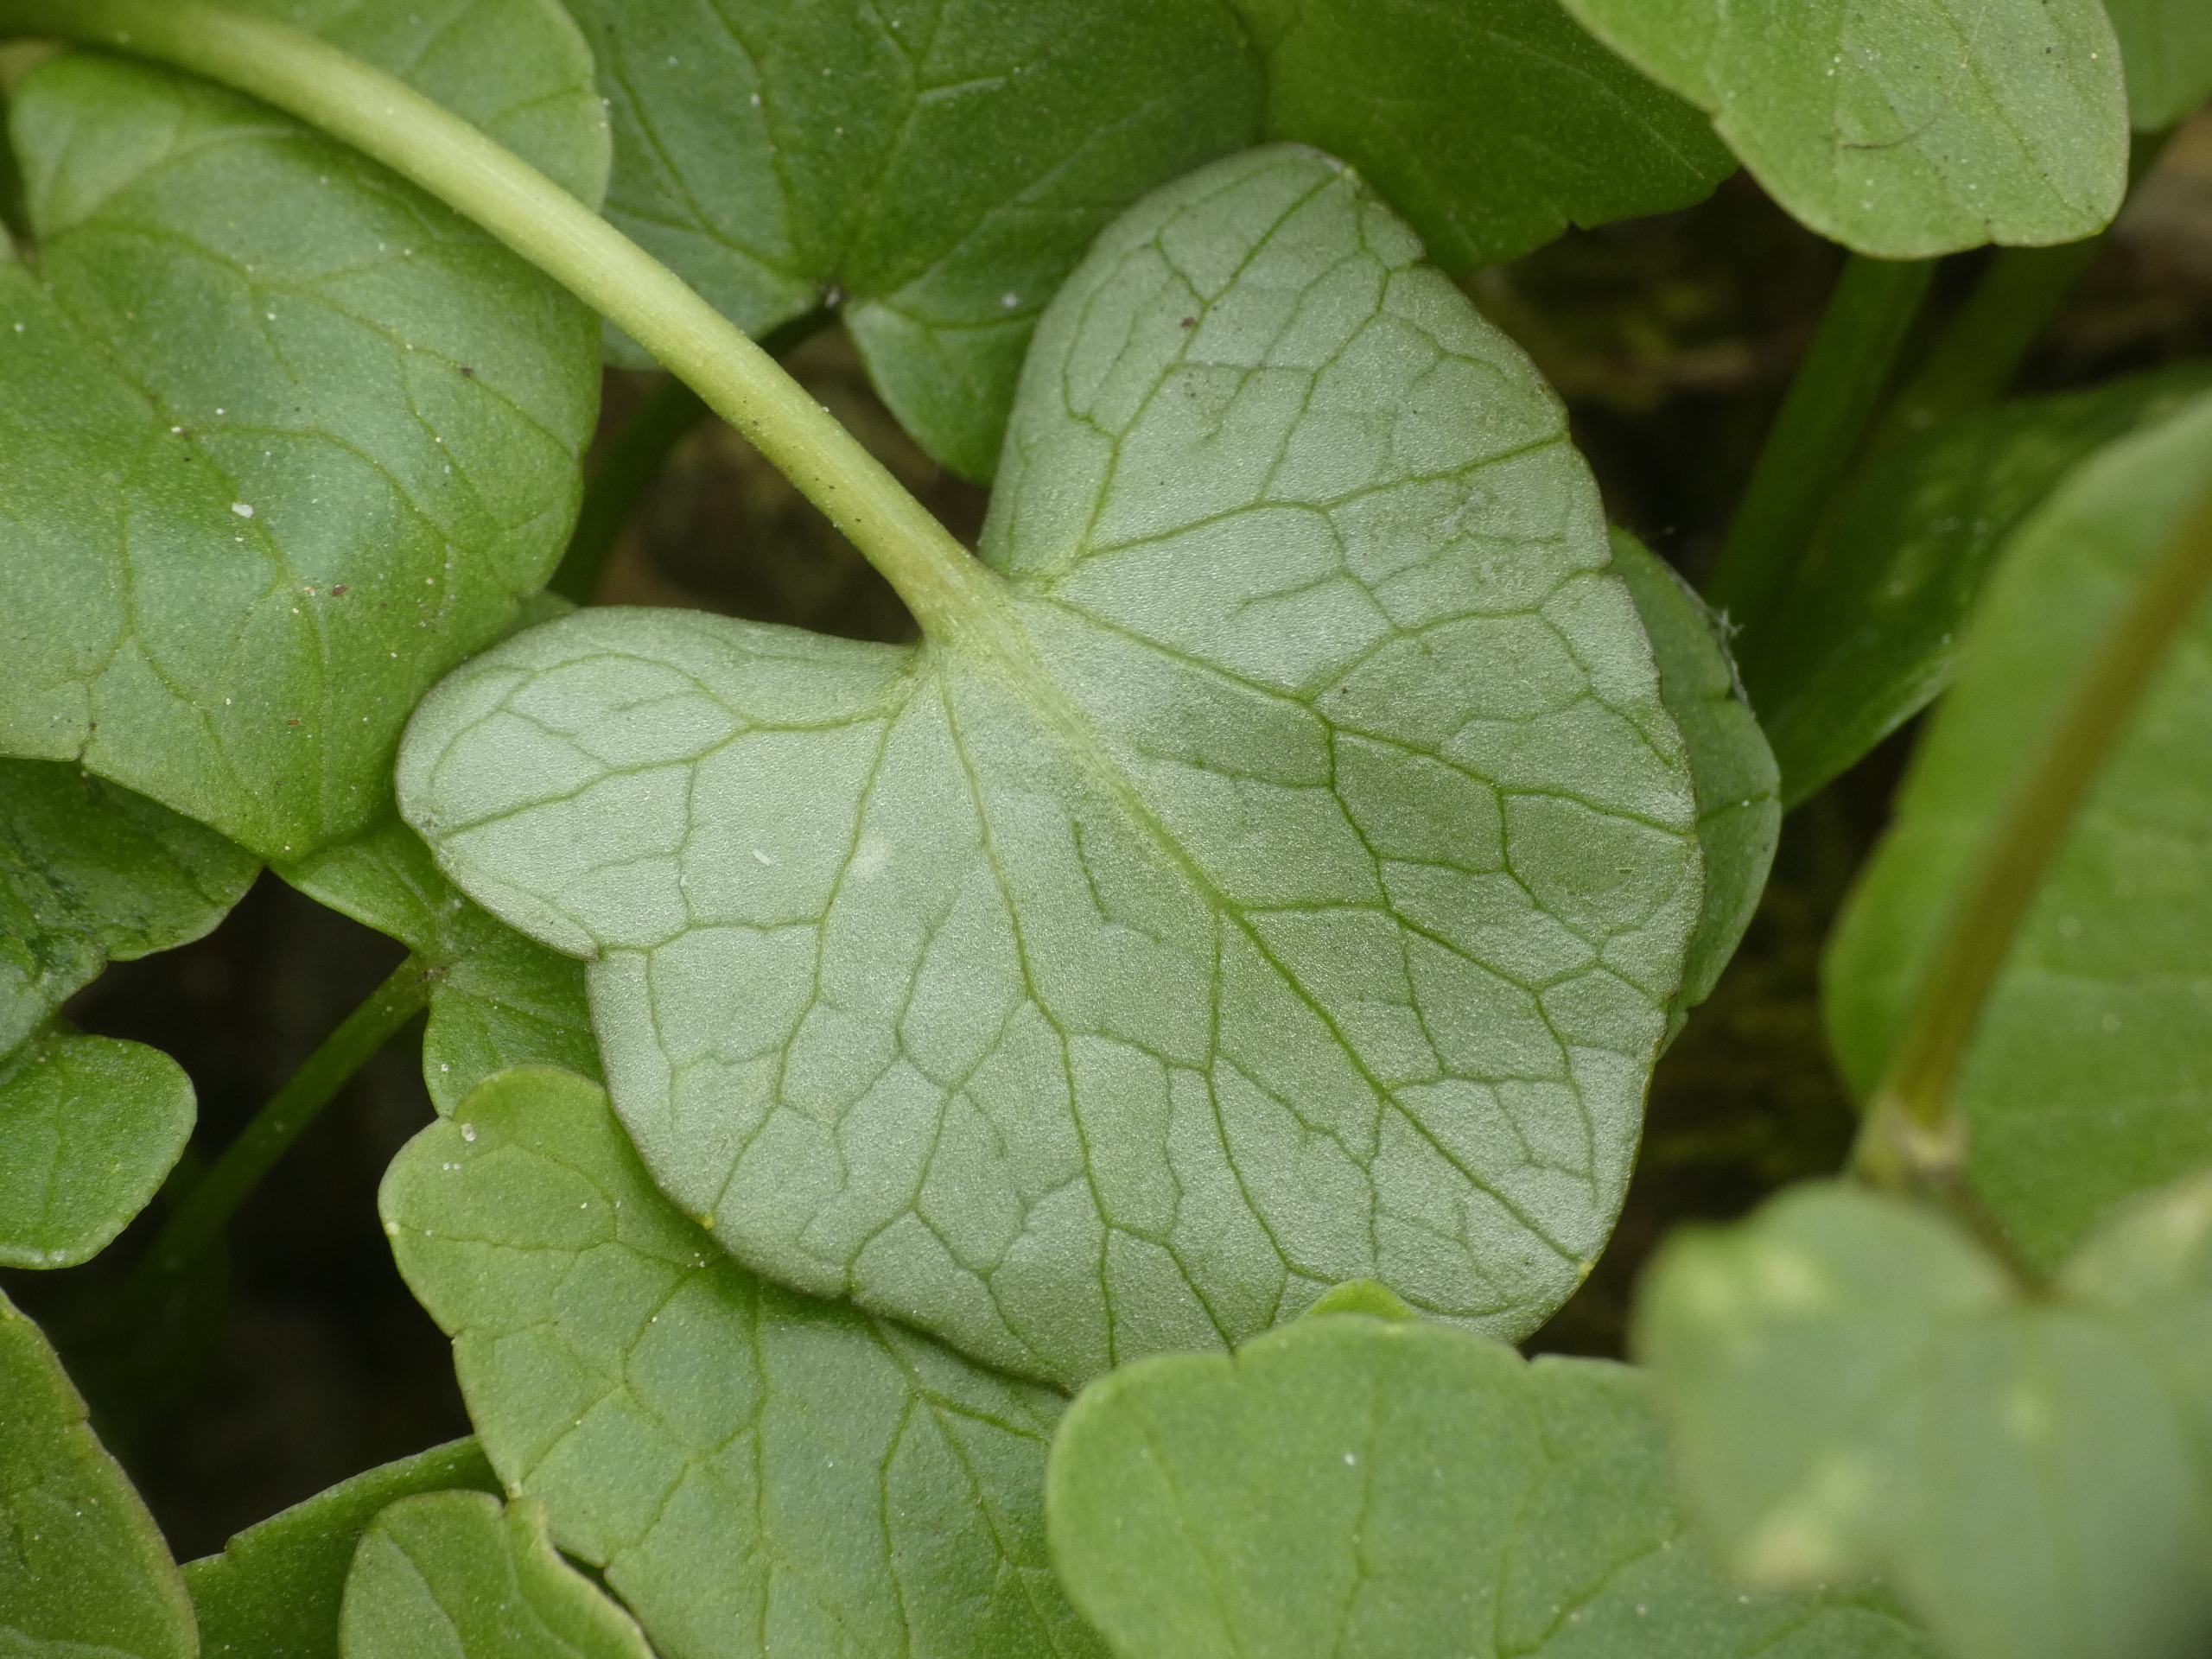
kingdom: Plantae
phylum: Tracheophyta
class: Magnoliopsida
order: Ranunculales
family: Ranunculaceae
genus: Ficaria
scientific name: Ficaria verna
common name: Vorterod
